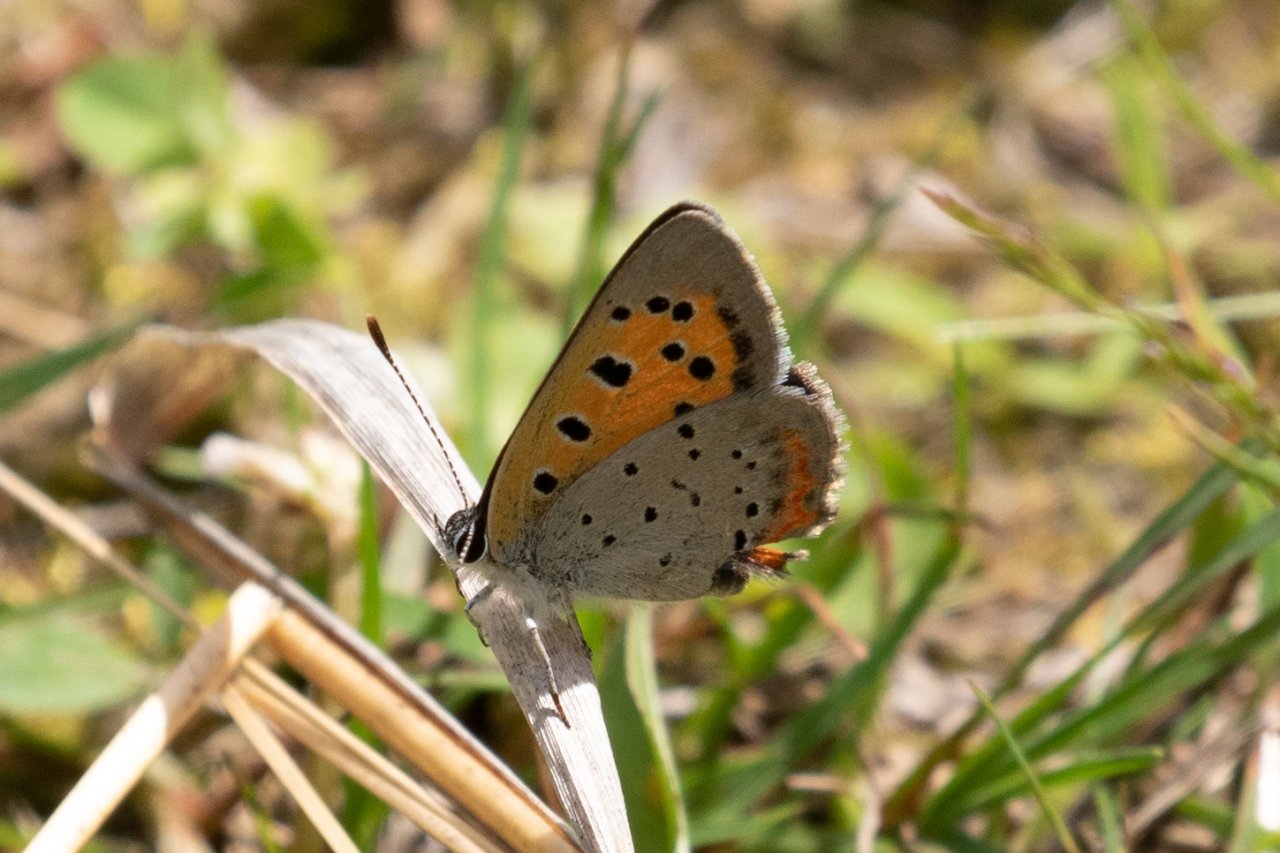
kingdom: Animalia
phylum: Arthropoda
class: Insecta
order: Lepidoptera
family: Lycaenidae
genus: Lycaena
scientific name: Lycaena phlaeas
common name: American Copper
